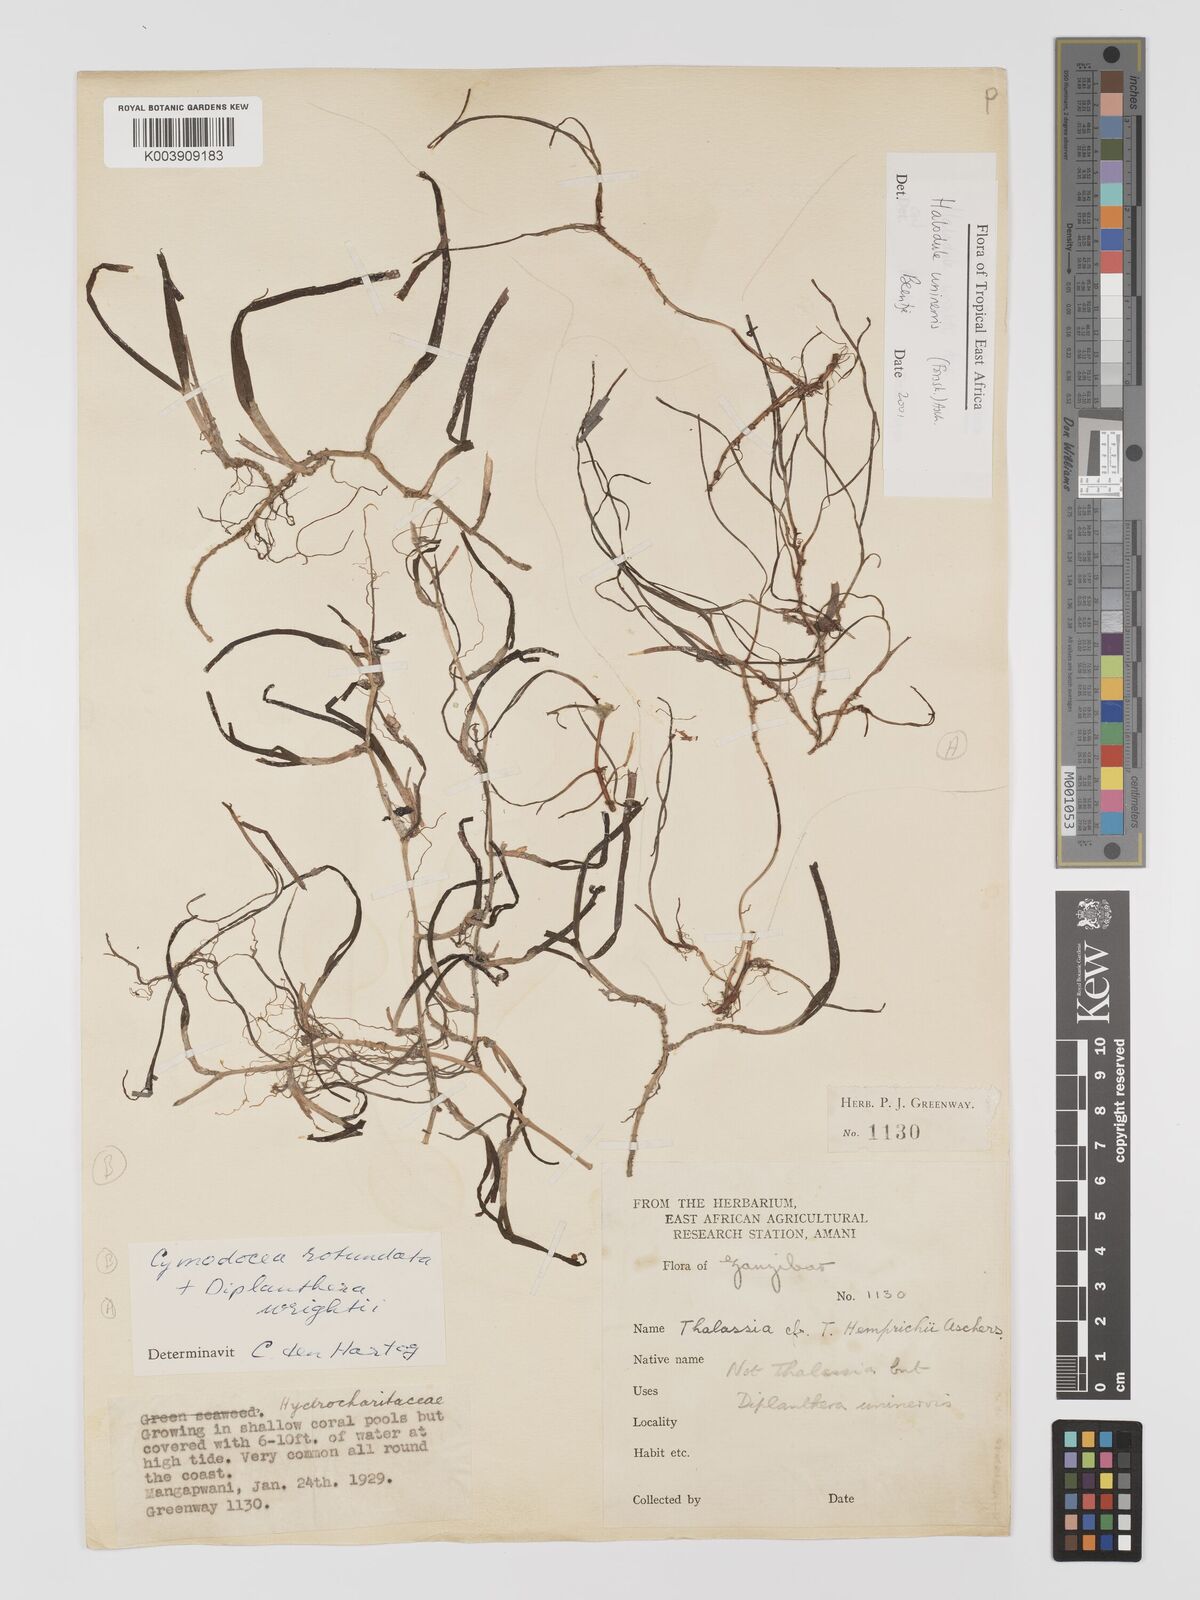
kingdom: Plantae
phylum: Tracheophyta
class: Liliopsida
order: Alismatales
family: Cymodoceaceae
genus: Halodule
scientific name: Halodule uninervis
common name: Narrowleaf seagrass
